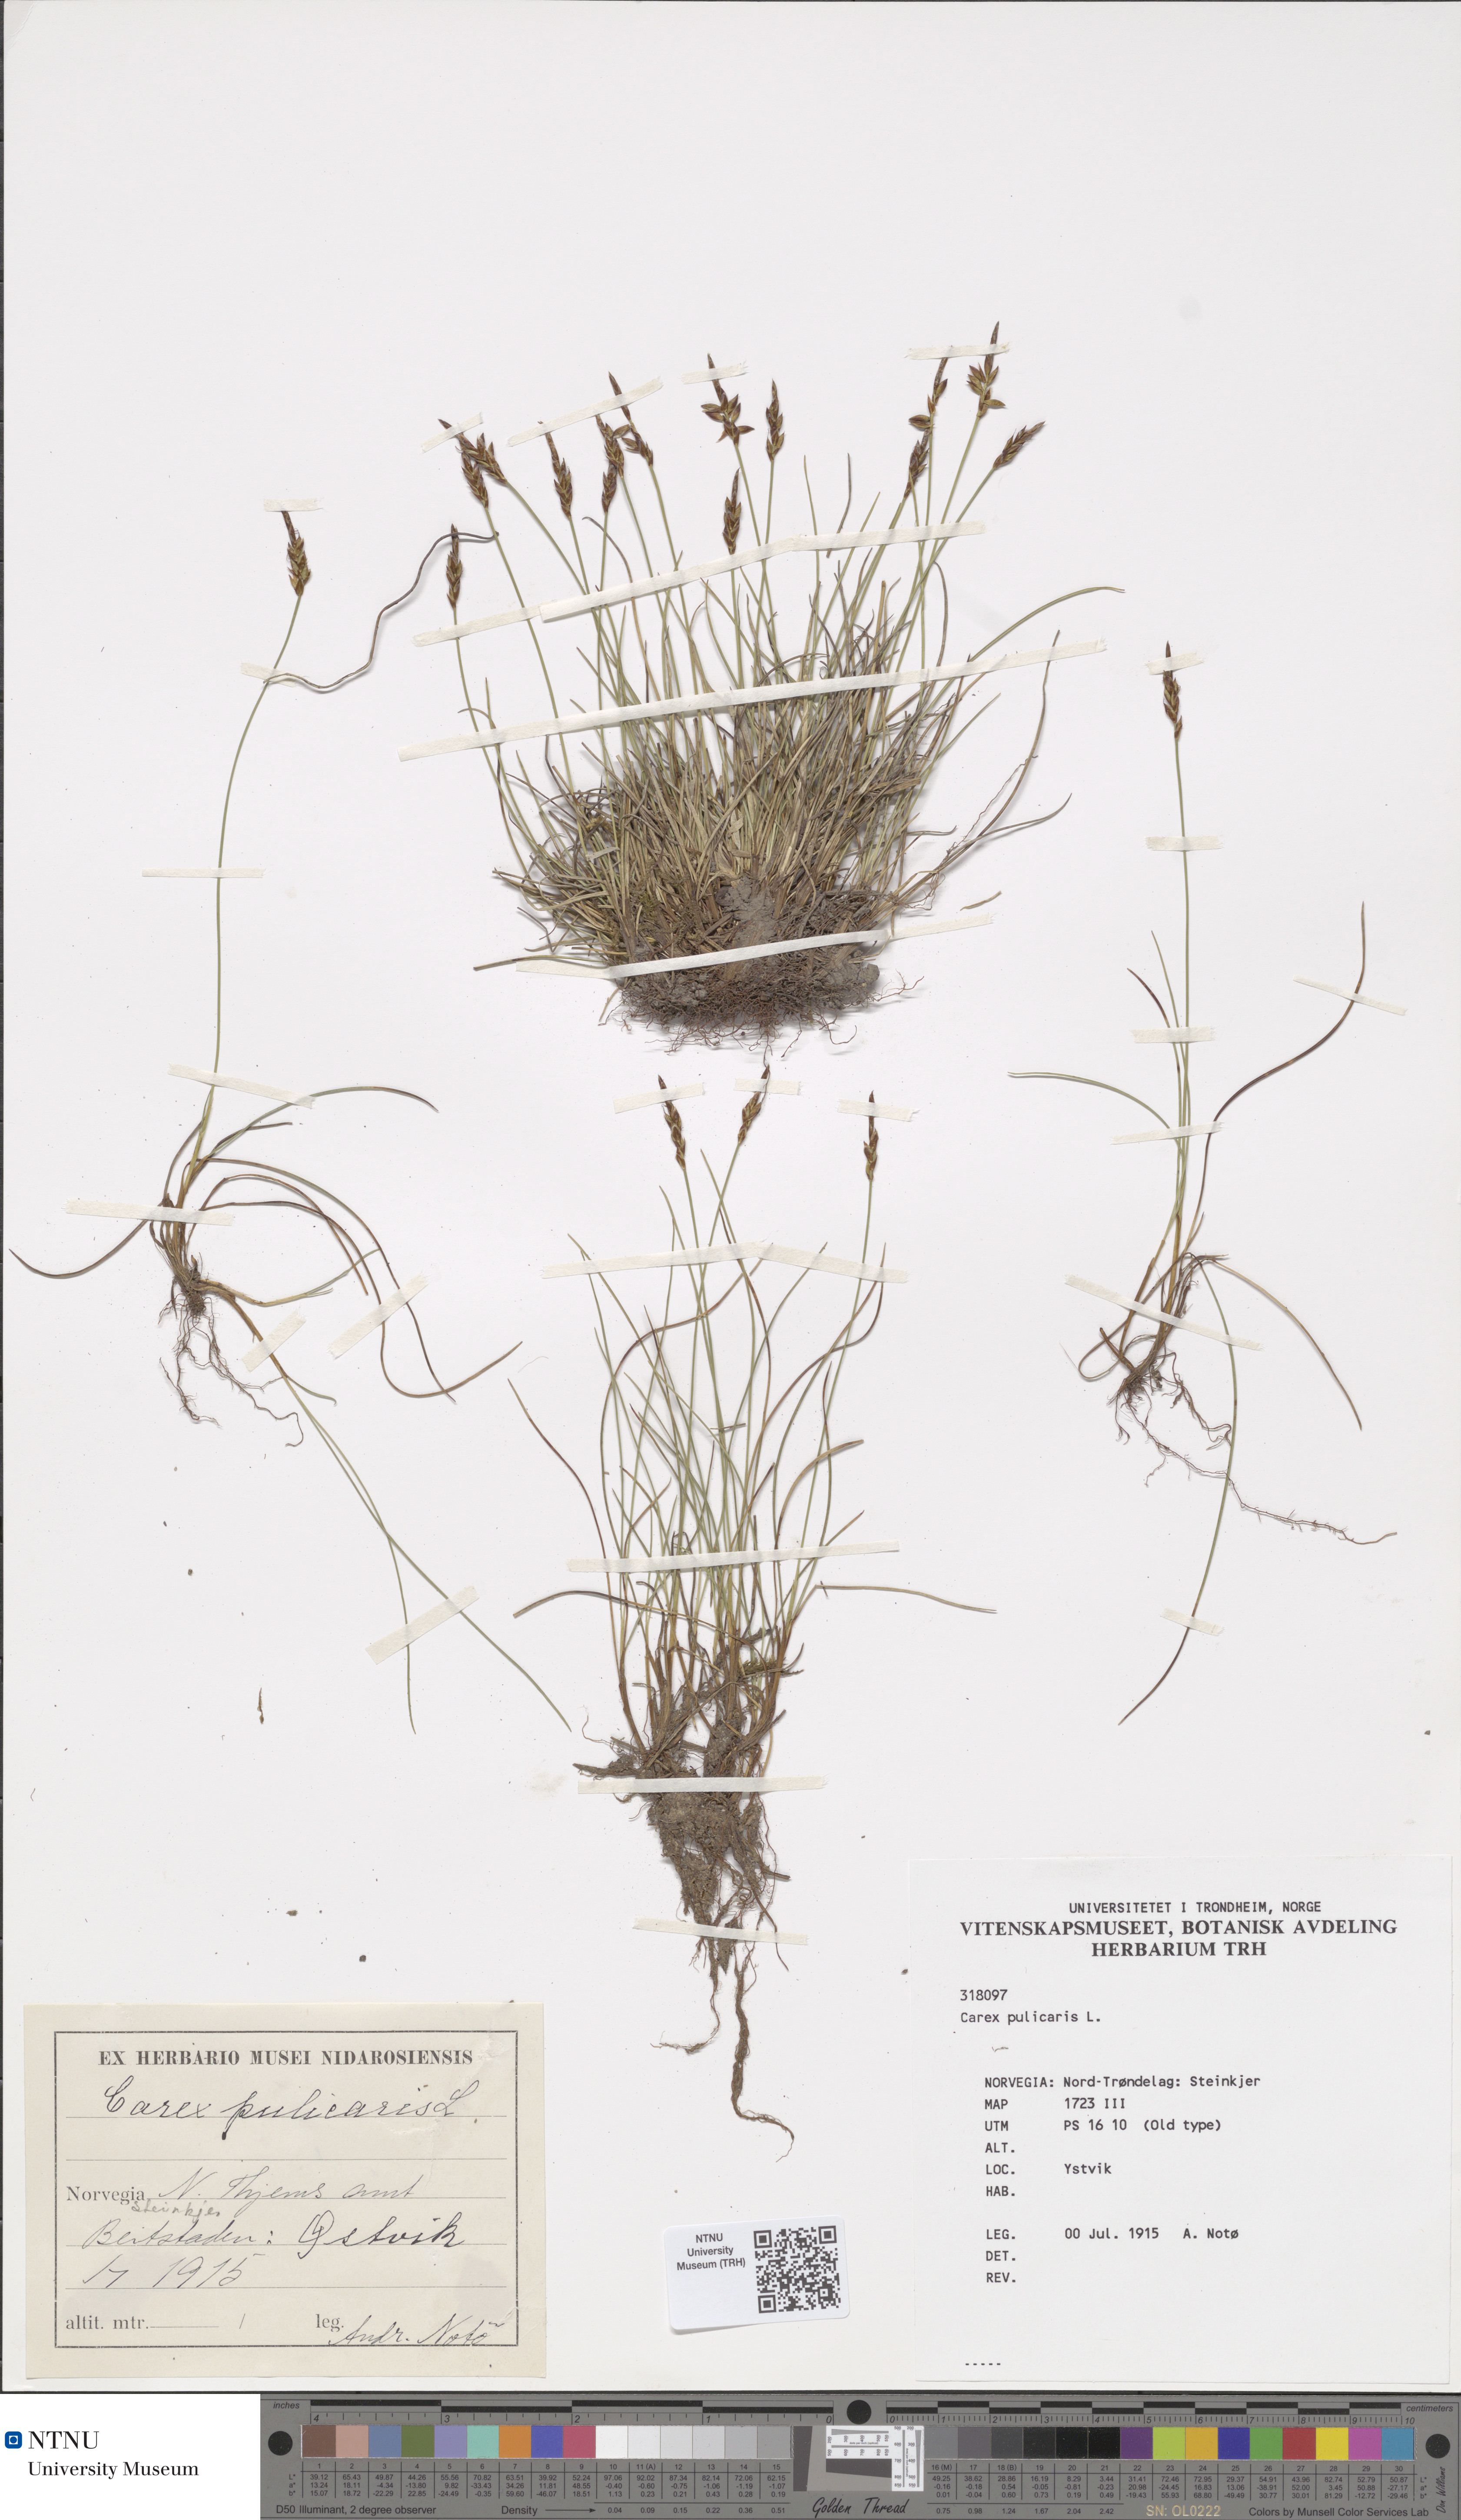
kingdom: Plantae
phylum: Tracheophyta
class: Liliopsida
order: Poales
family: Cyperaceae
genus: Carex
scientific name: Carex pulicaris
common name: Flea sedge
